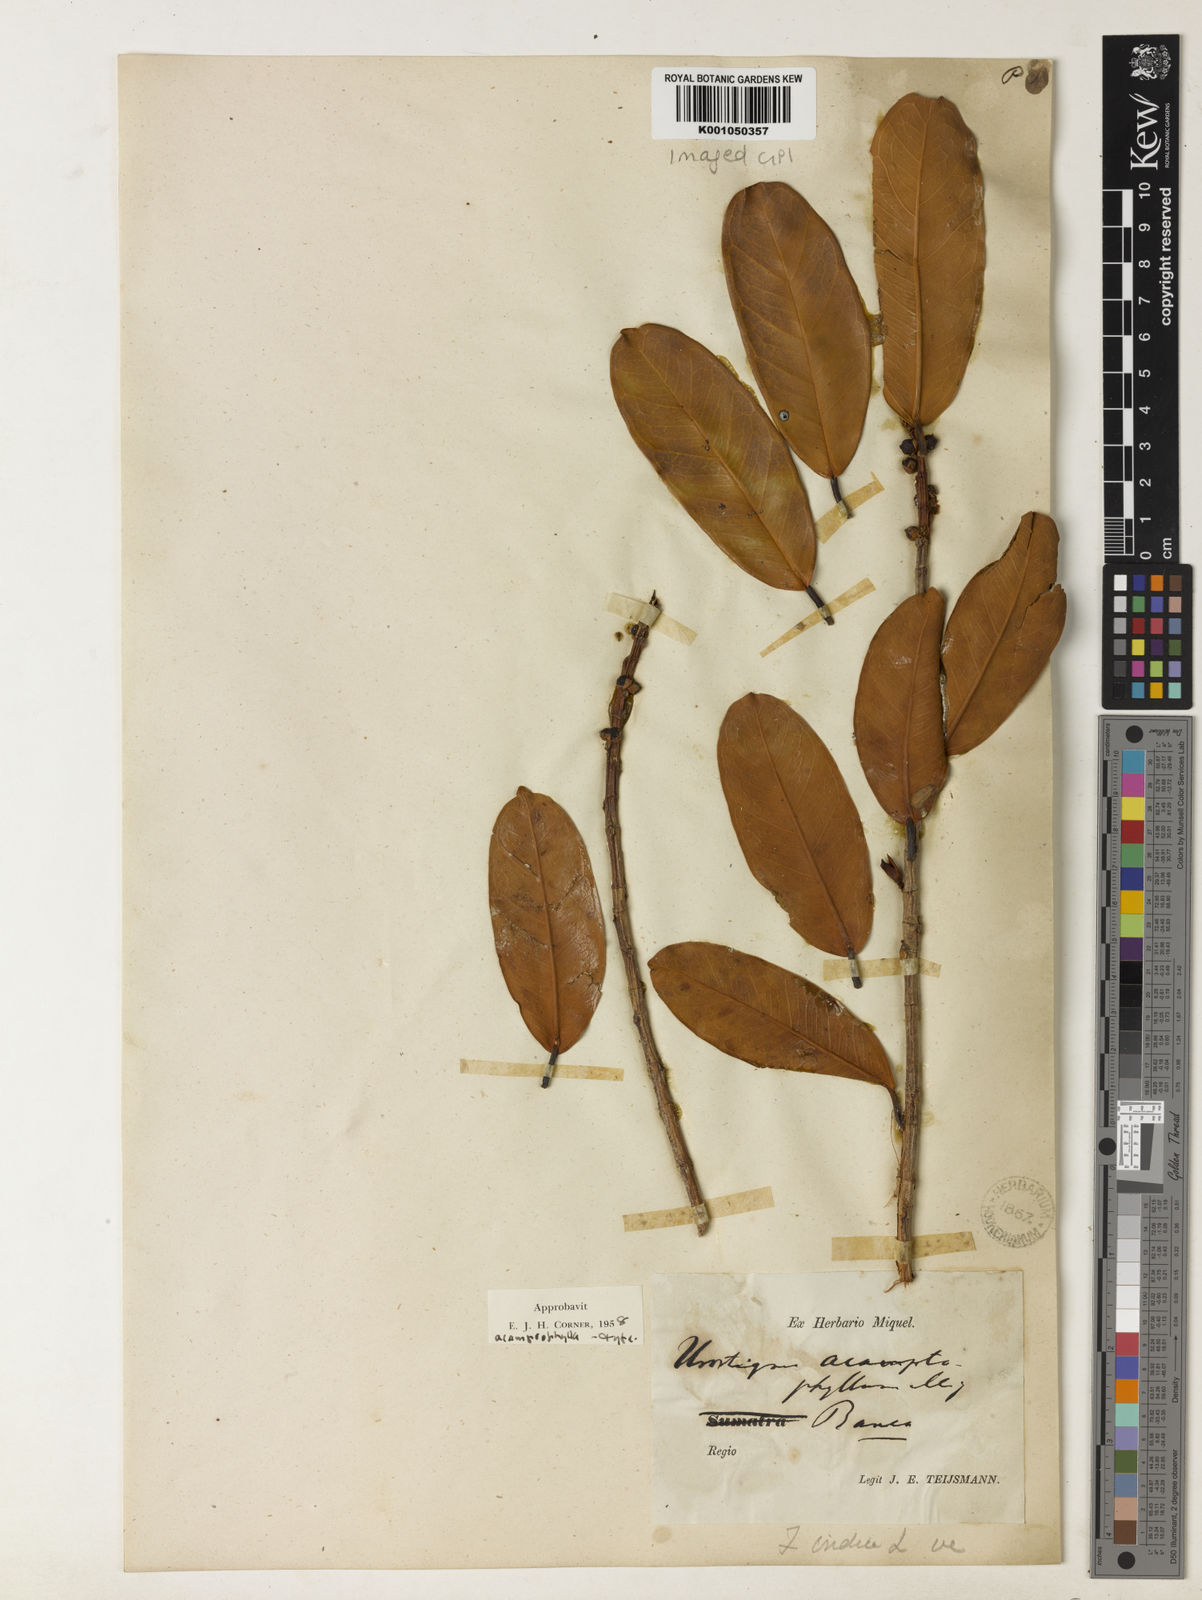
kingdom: Plantae
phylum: Tracheophyta
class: Magnoliopsida
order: Rosales
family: Moraceae
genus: Ficus
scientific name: Ficus acamptophylla
